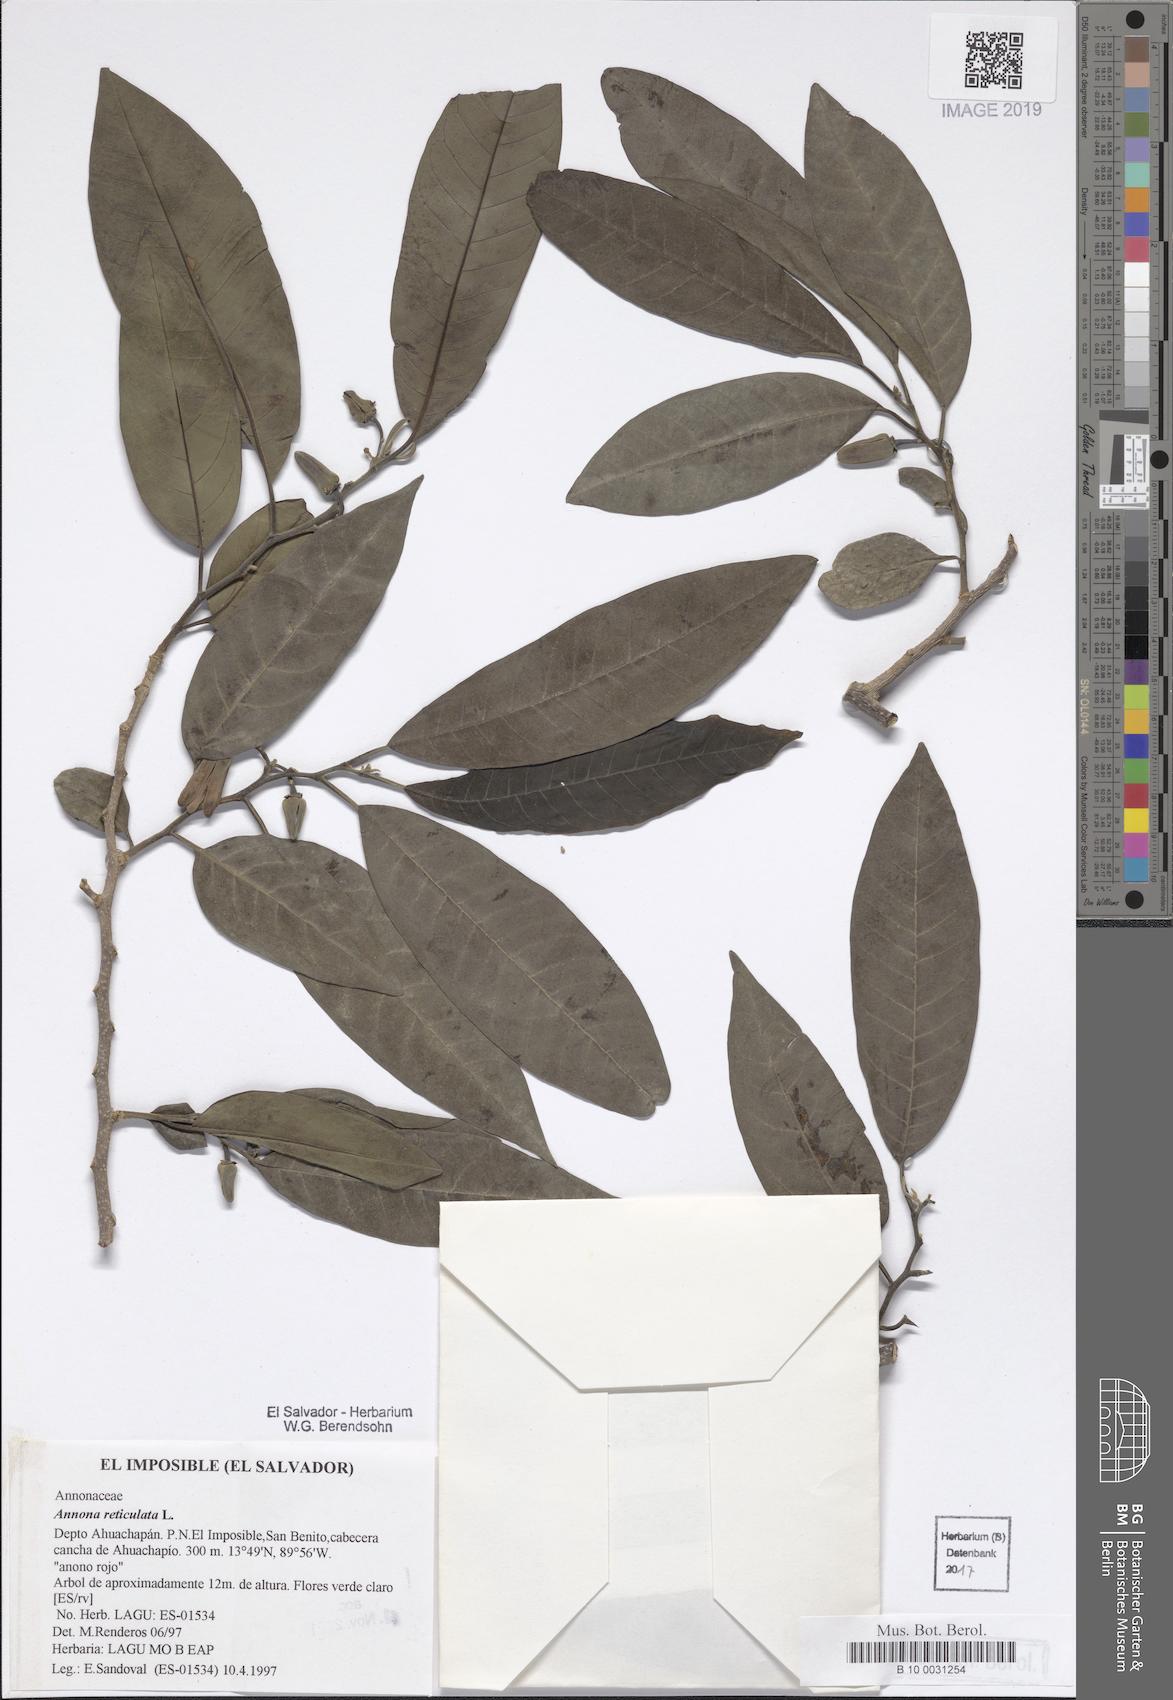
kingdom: Plantae
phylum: Tracheophyta
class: Magnoliopsida
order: Magnoliales
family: Annonaceae
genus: Annona
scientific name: Annona reticulata
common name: Custard apple
